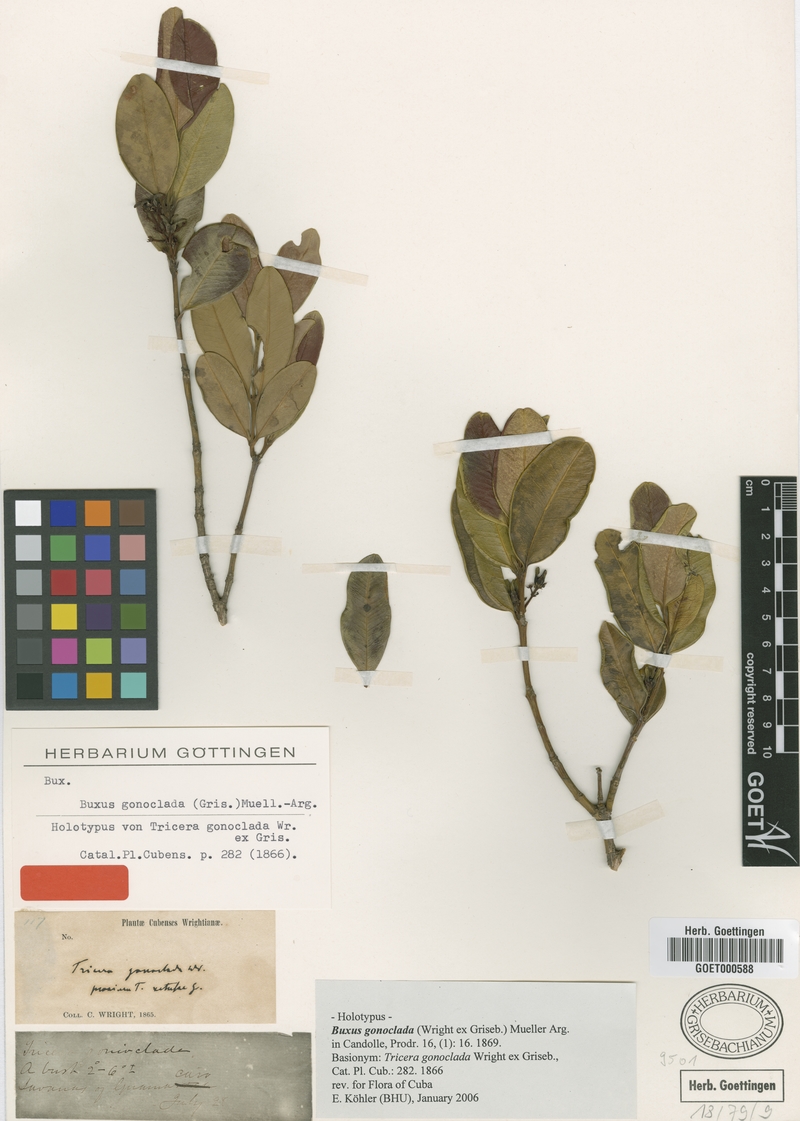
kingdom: Plantae
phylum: Tracheophyta
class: Magnoliopsida
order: Buxales
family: Buxaceae
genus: Buxus
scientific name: Buxus gonoclada
